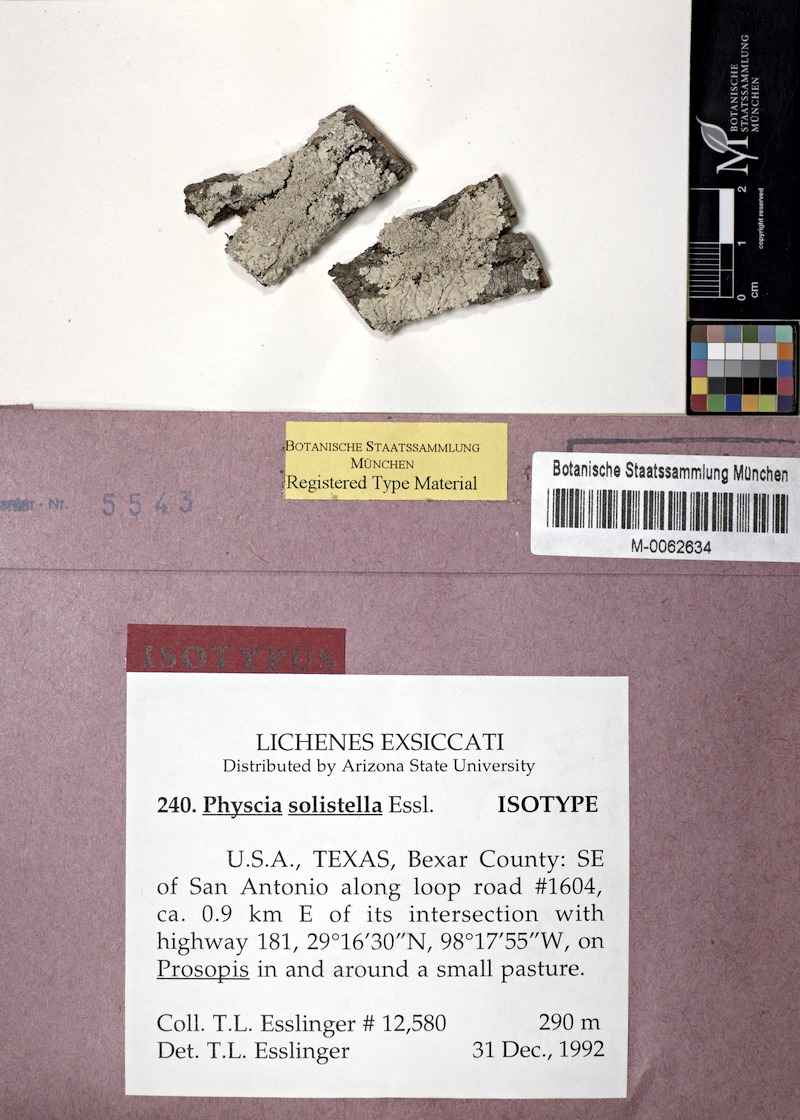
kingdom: Fungi
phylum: Ascomycota
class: Lecanoromycetes
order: Caliciales
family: Physciaceae
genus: Physcia
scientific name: Physcia solistella
